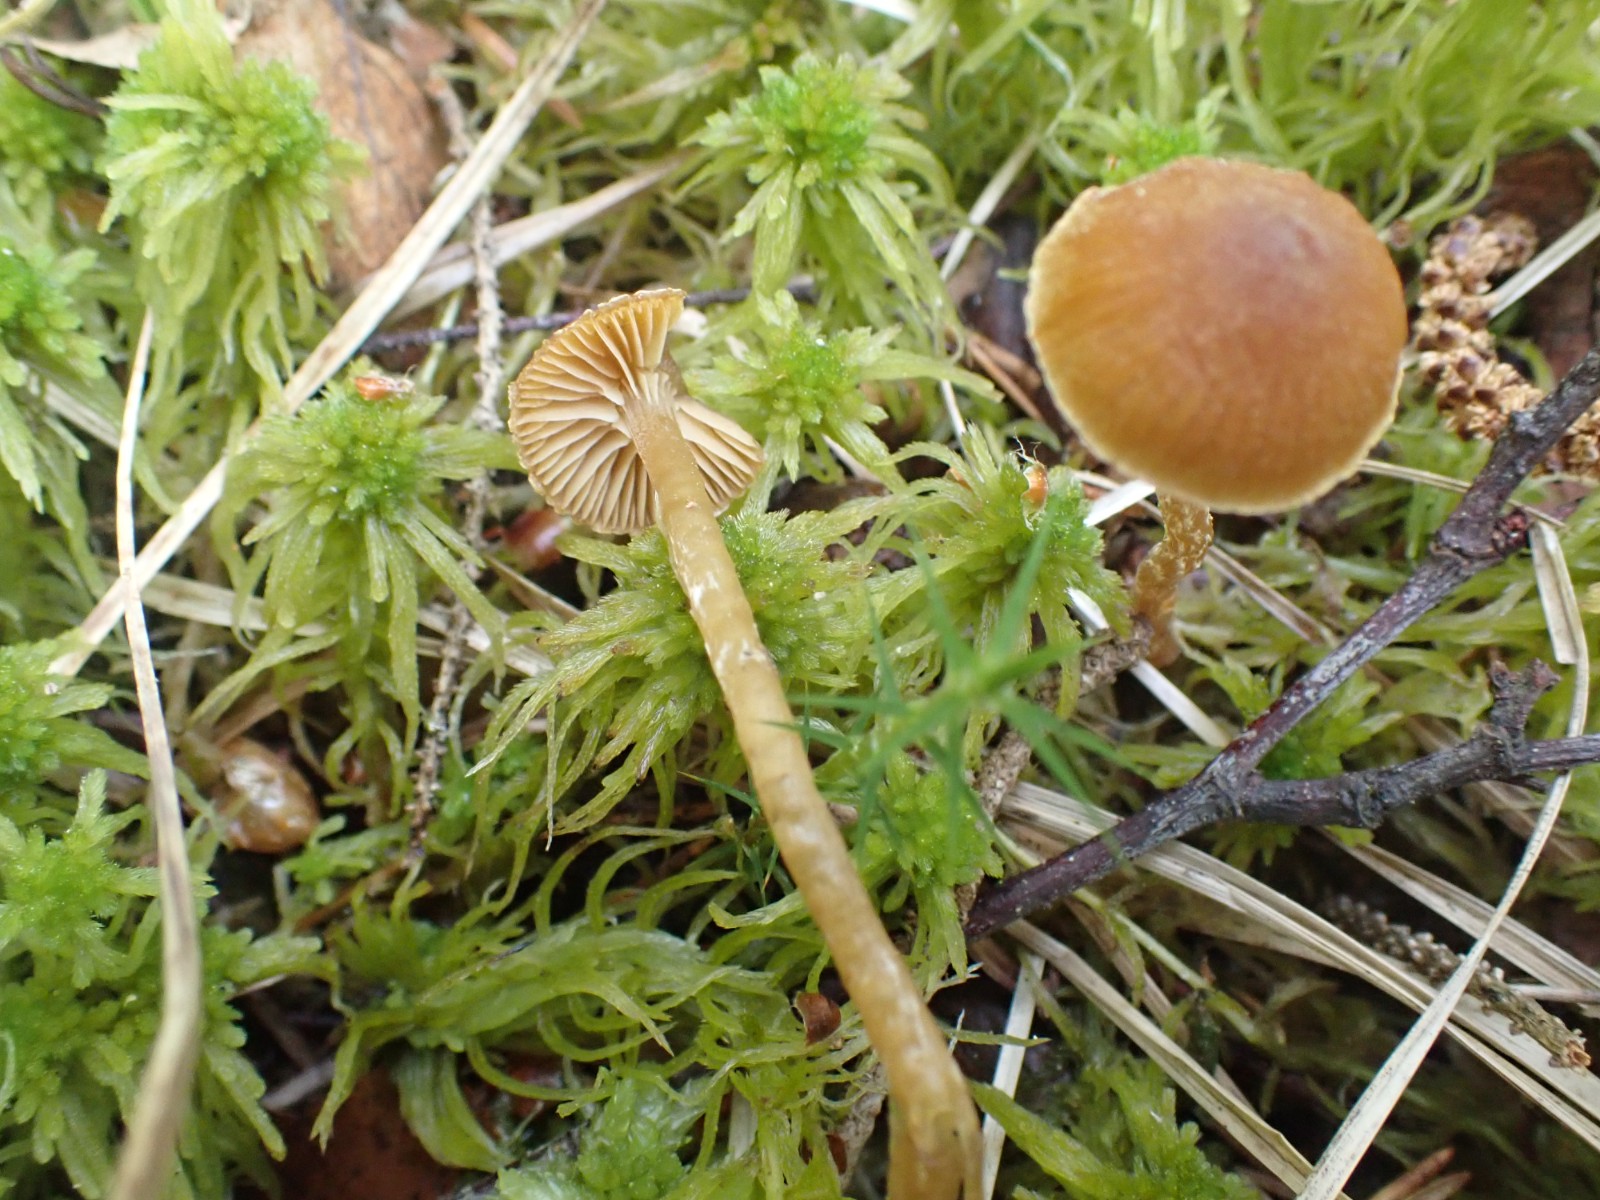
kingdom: Fungi
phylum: Basidiomycota
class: Agaricomycetes
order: Agaricales
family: Hymenogastraceae
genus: Galerina
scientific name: Galerina paludosa
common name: mose-hjelmhat
